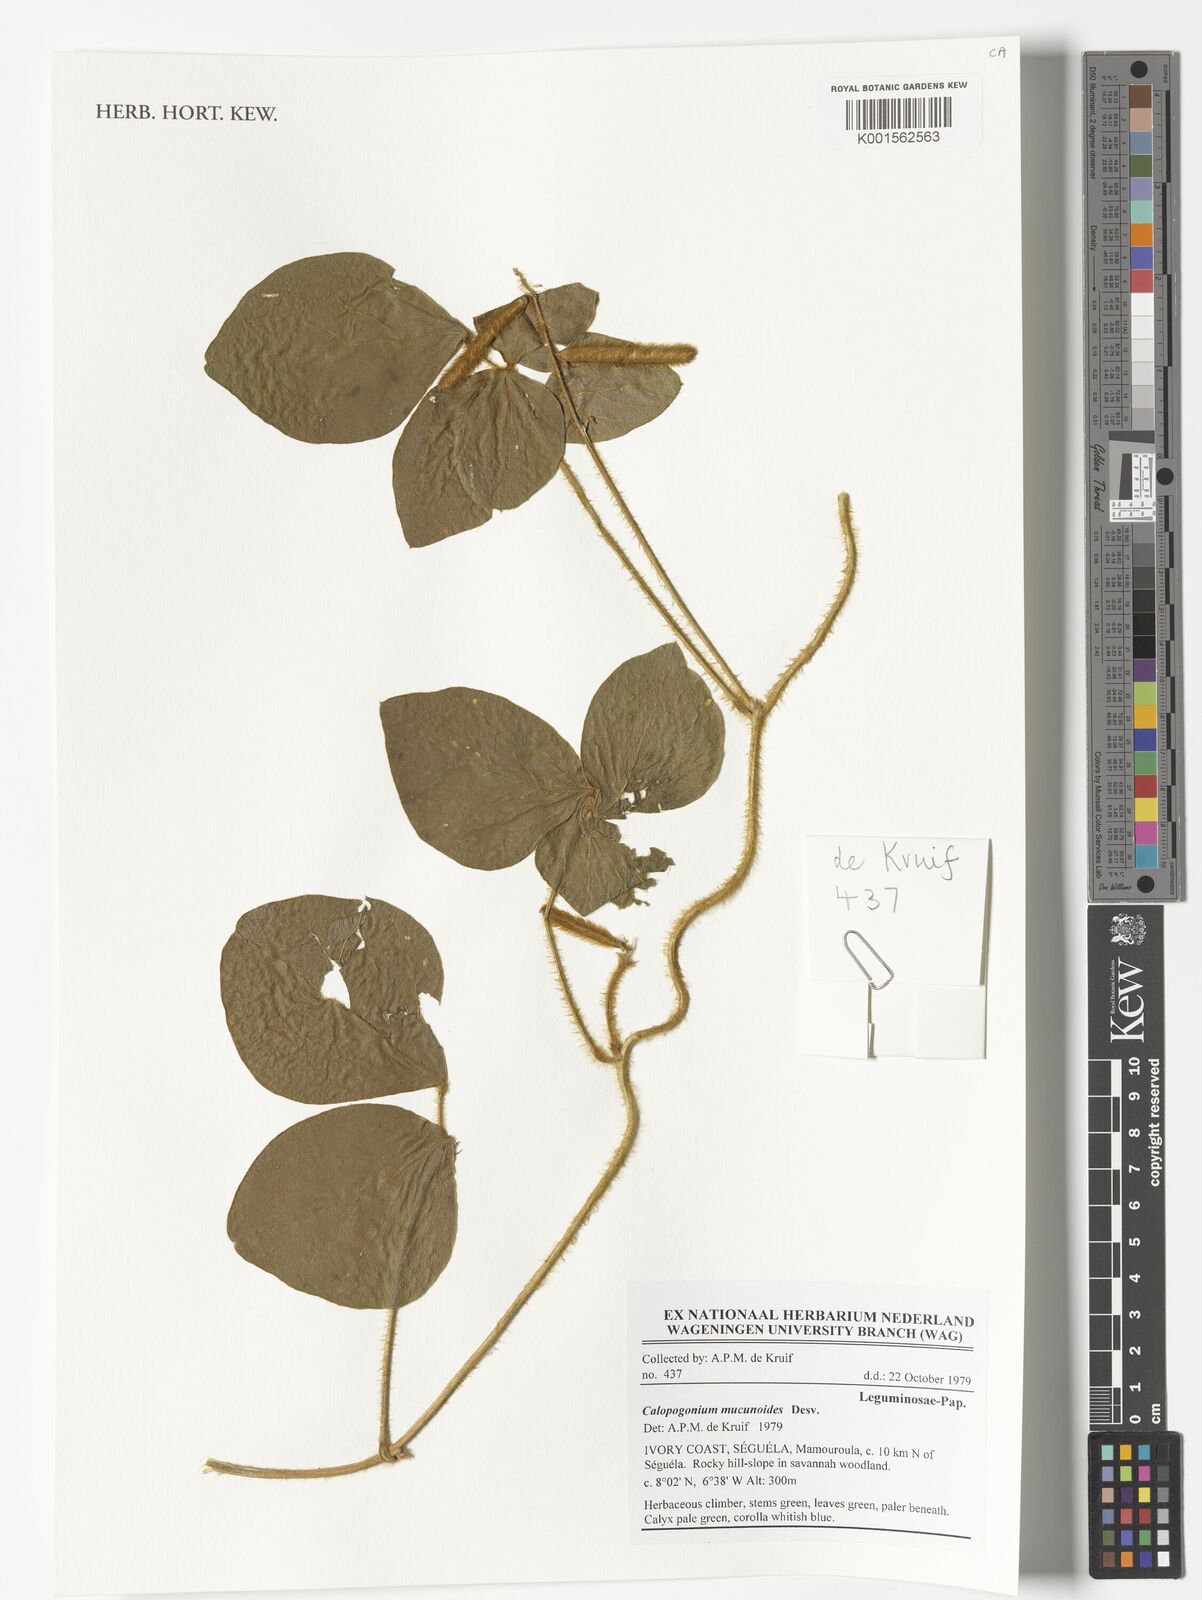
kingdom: Plantae
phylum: Tracheophyta
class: Magnoliopsida
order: Fabales
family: Fabaceae
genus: Calopogonium
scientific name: Calopogonium mucunoides
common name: Calopo
